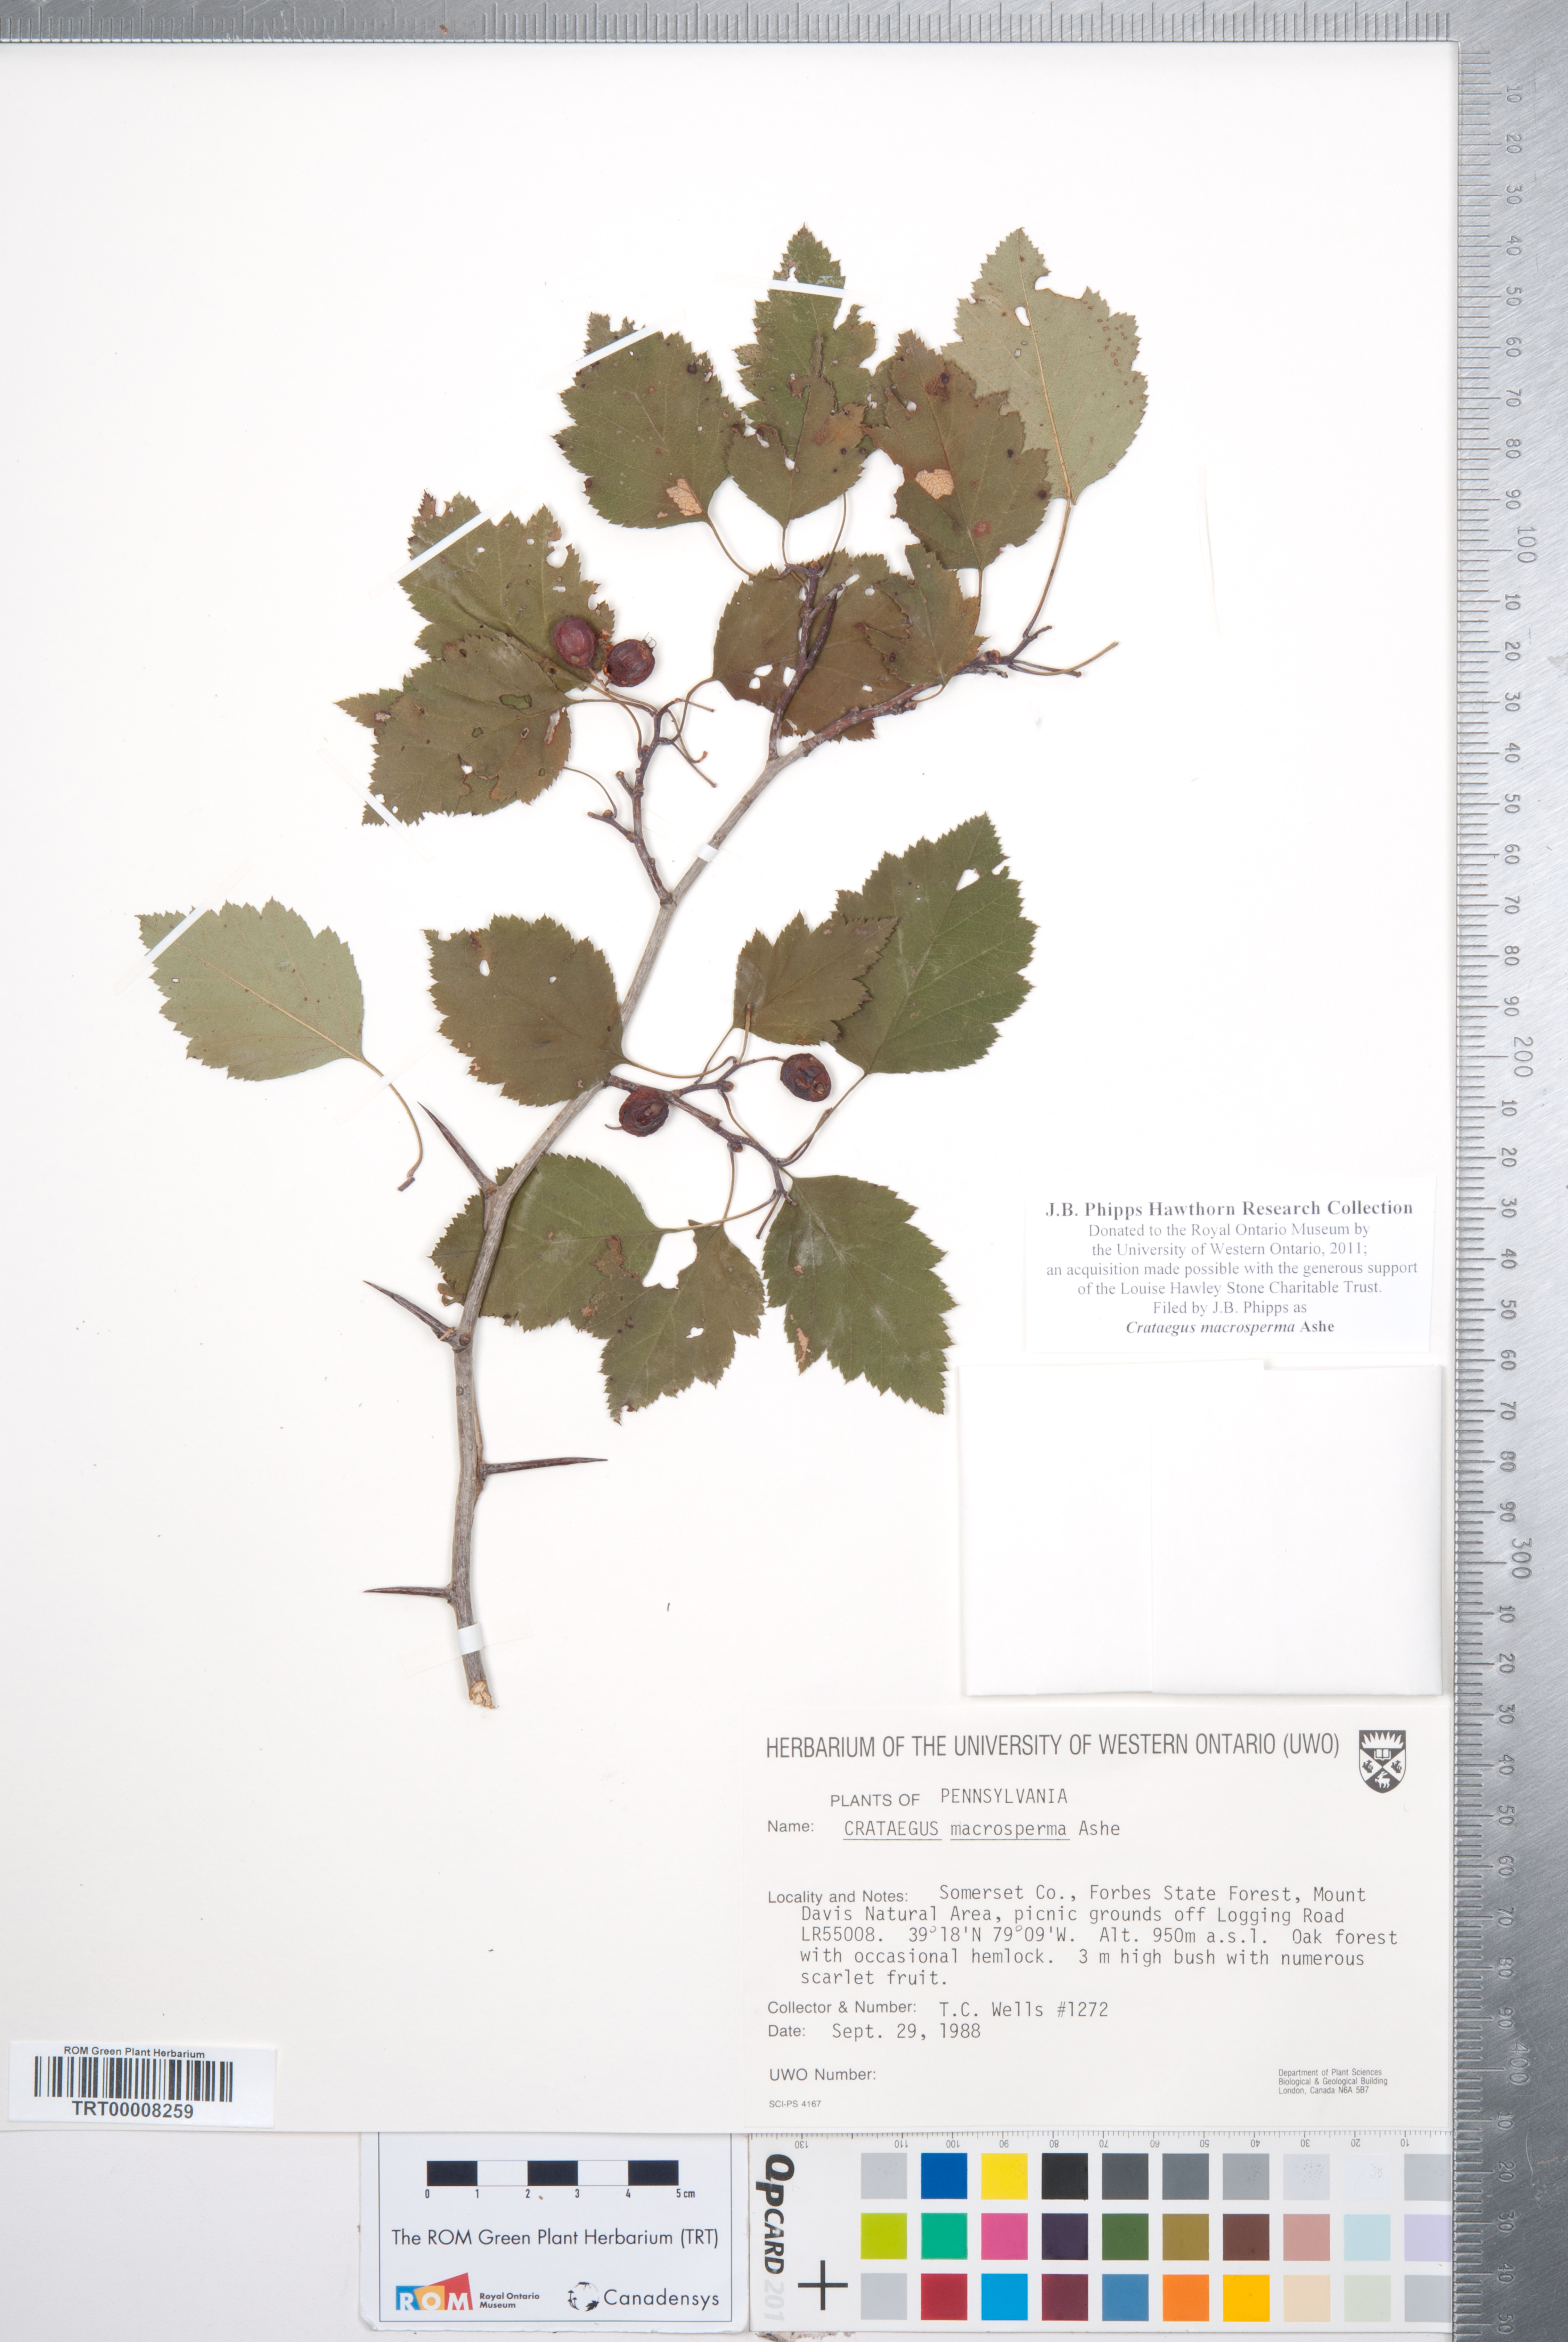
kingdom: Plantae
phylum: Tracheophyta
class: Magnoliopsida
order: Rosales
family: Rosaceae
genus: Crataegus
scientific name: Crataegus macrosperma
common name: Variable hawthorn
